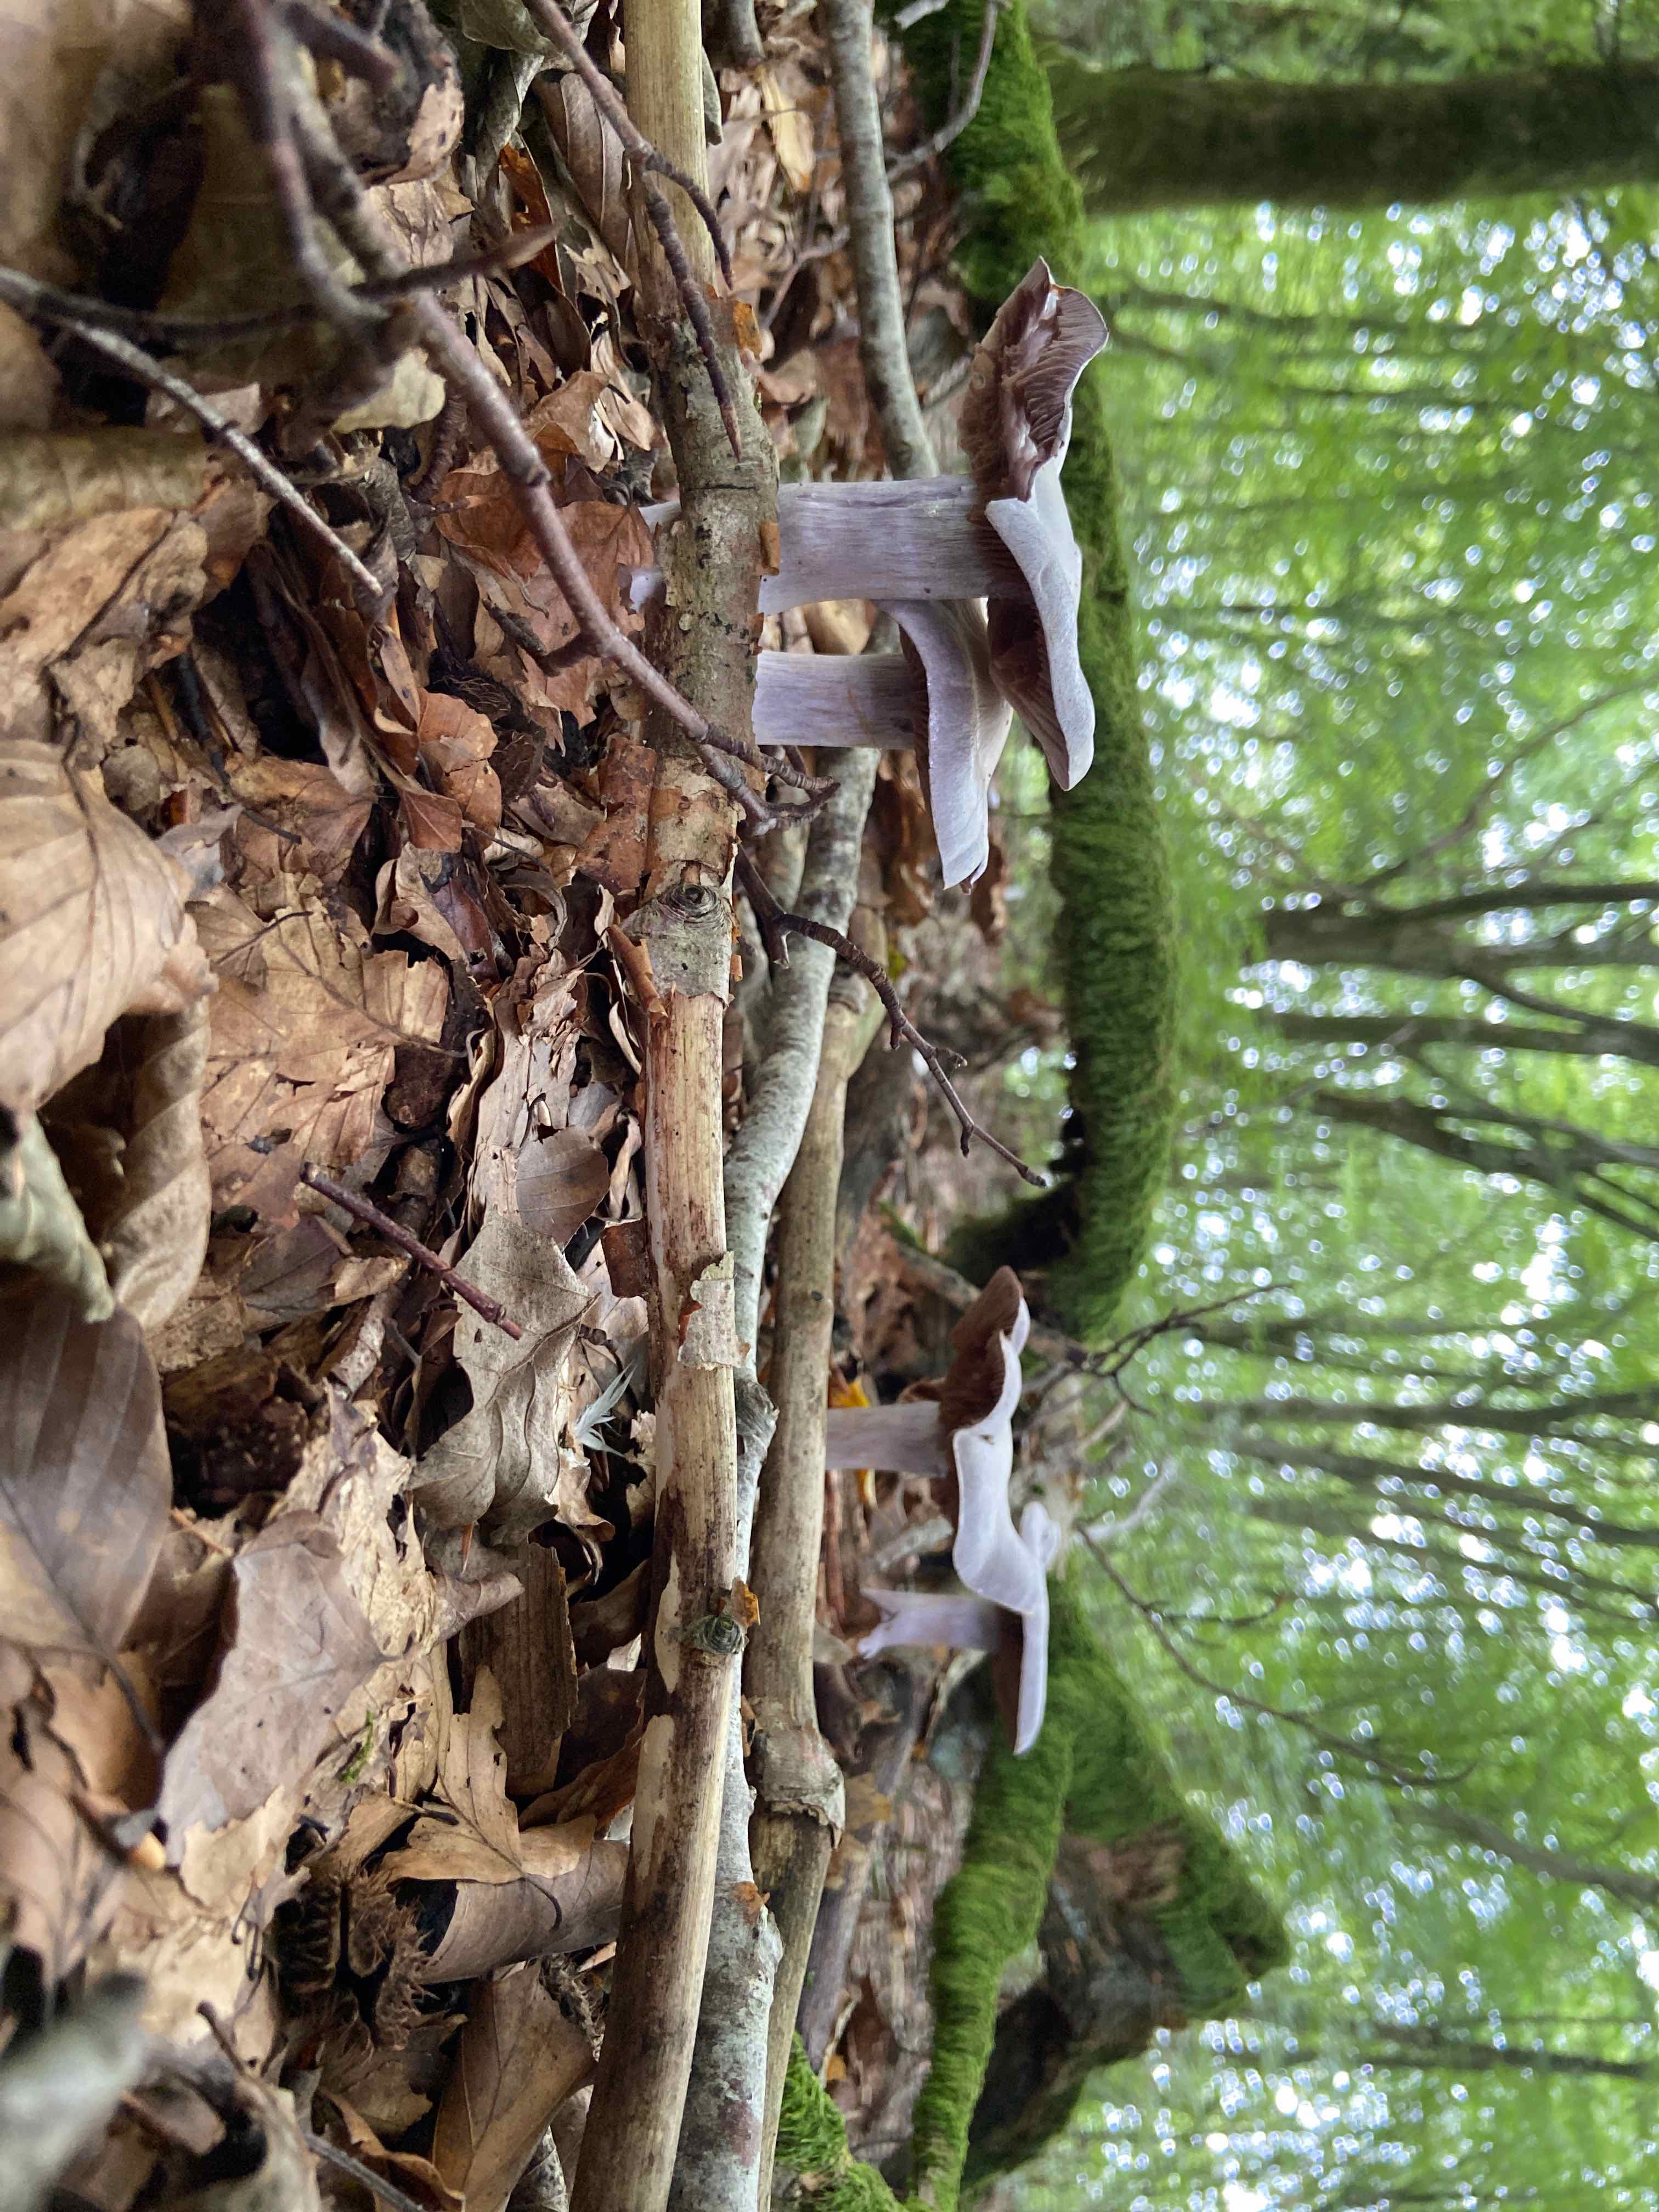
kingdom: Fungi
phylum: Basidiomycota
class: Agaricomycetes
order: Agaricales
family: Cortinariaceae
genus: Cortinarius
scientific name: Cortinarius alboviolaceus
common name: lysviolet slørhat
